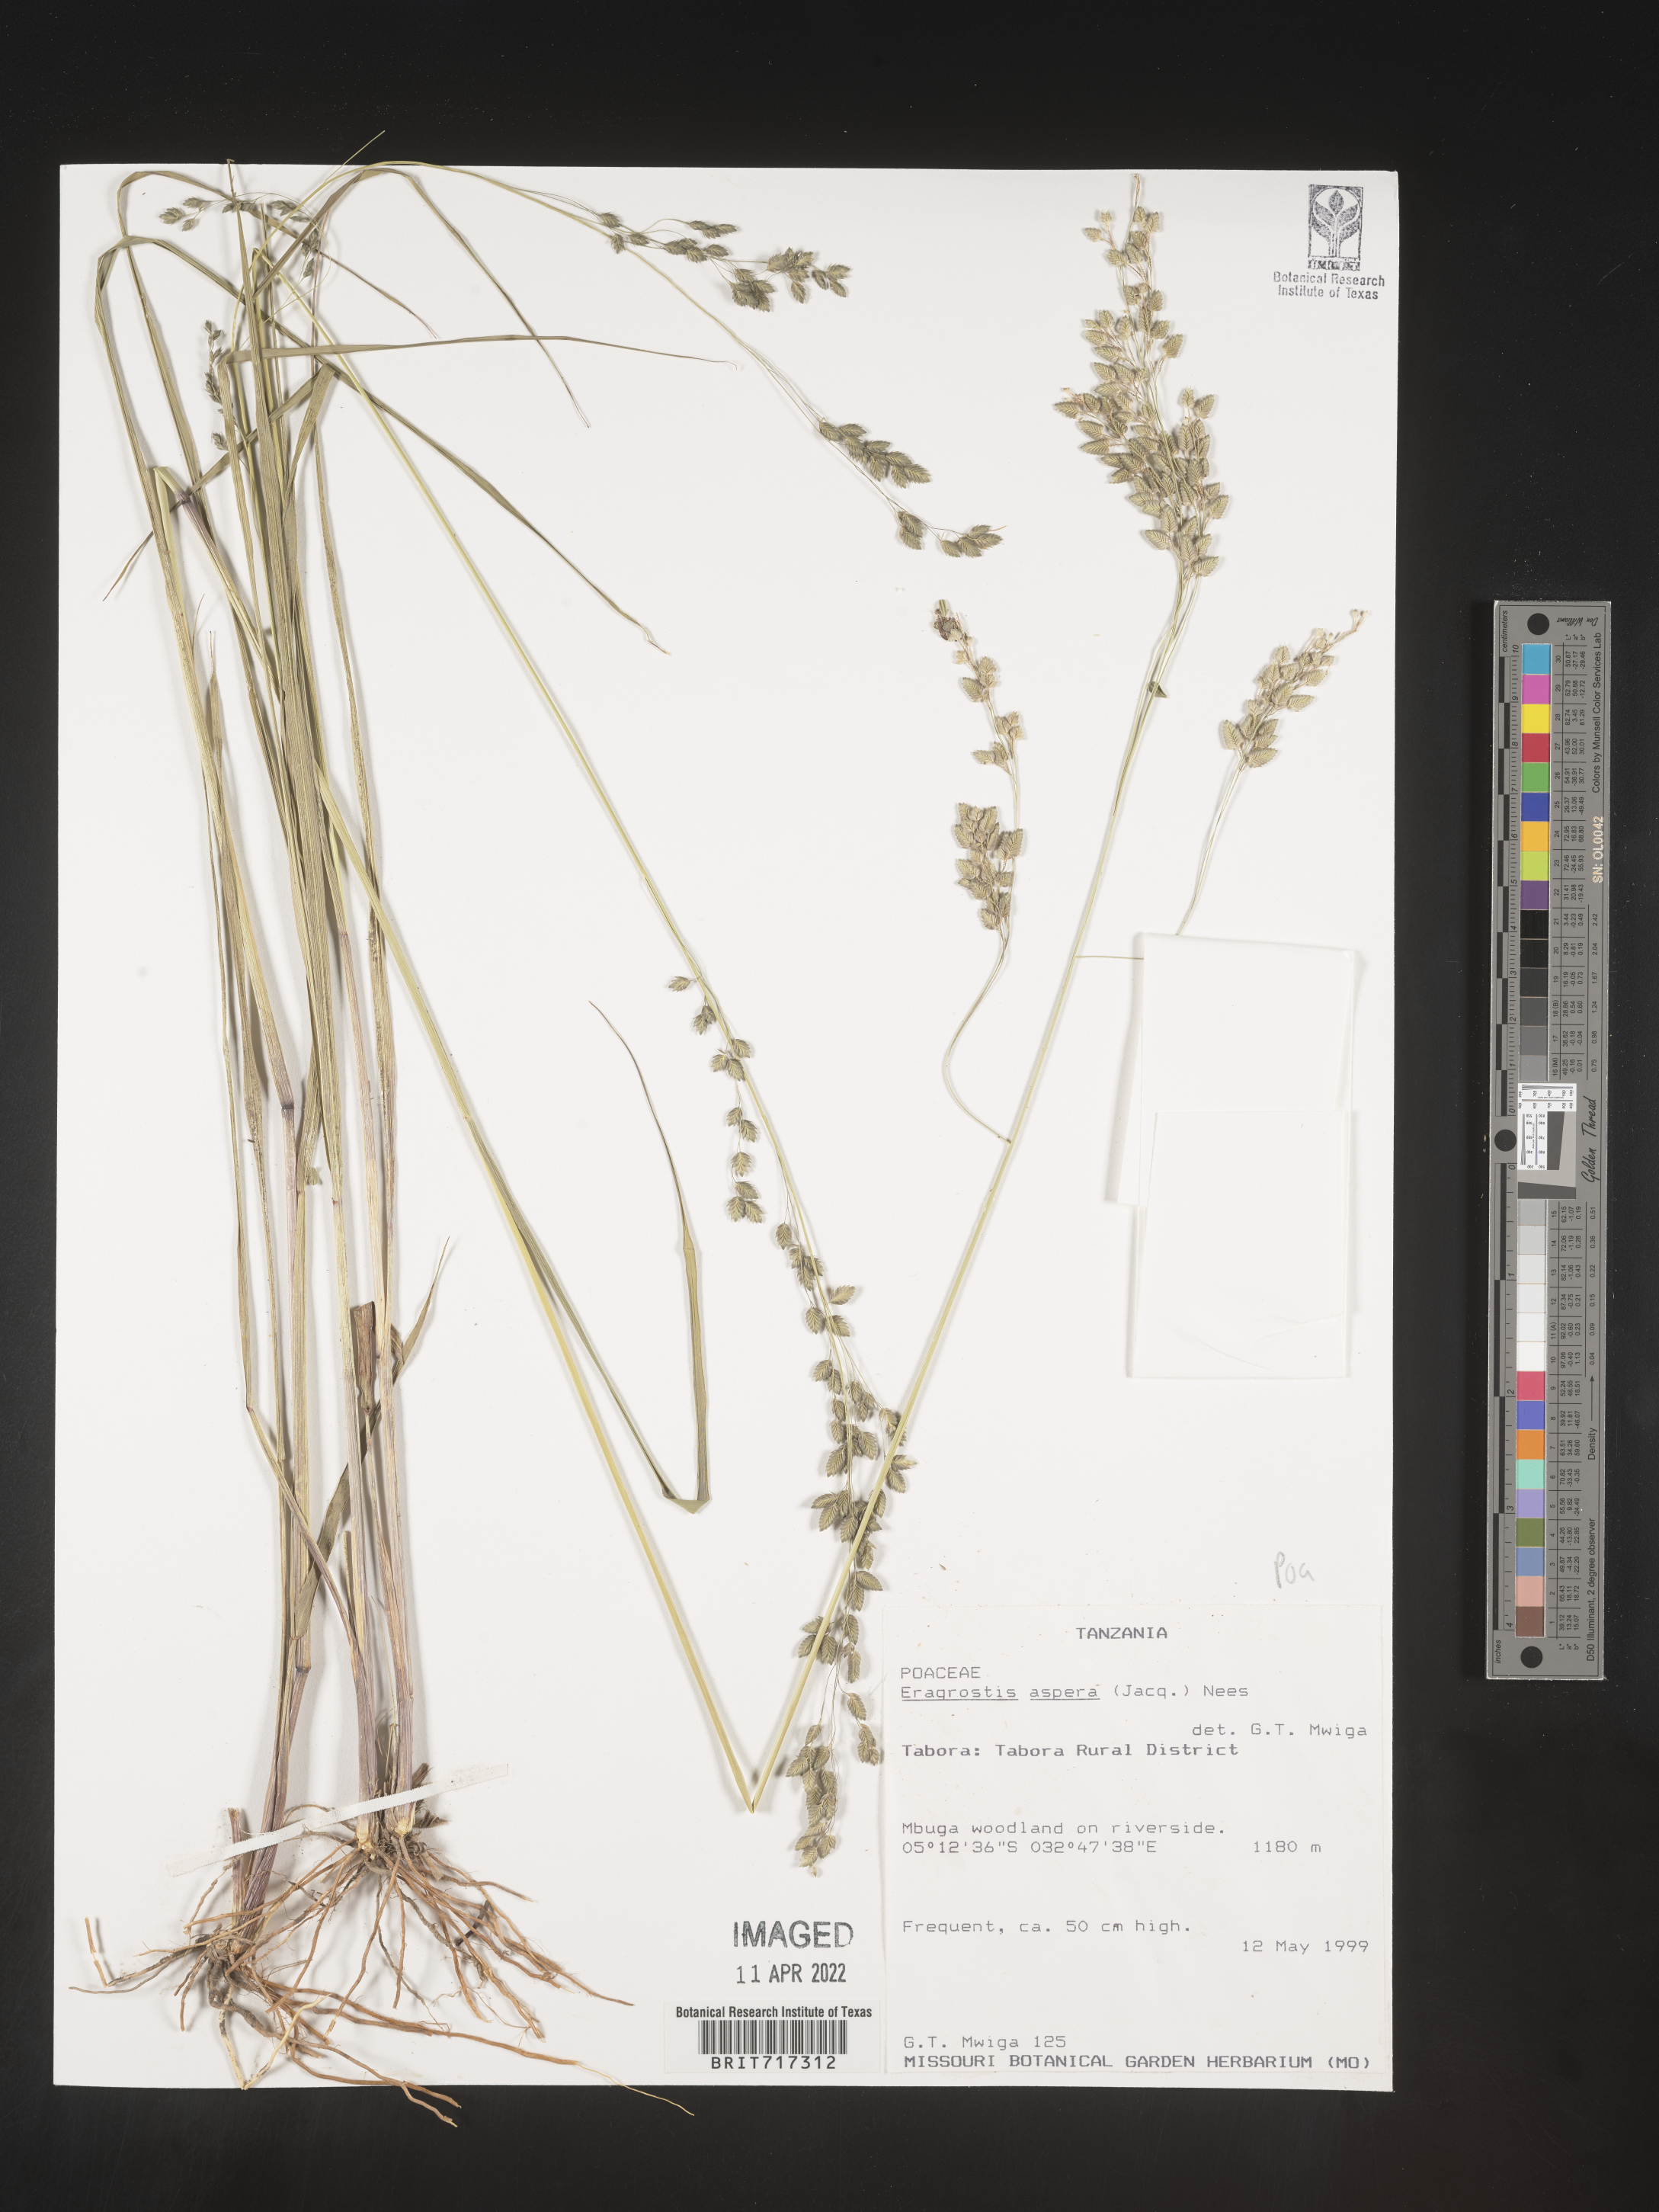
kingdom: Plantae
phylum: Tracheophyta
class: Liliopsida
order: Poales
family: Poaceae
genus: Eragrostis
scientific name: Eragrostis
